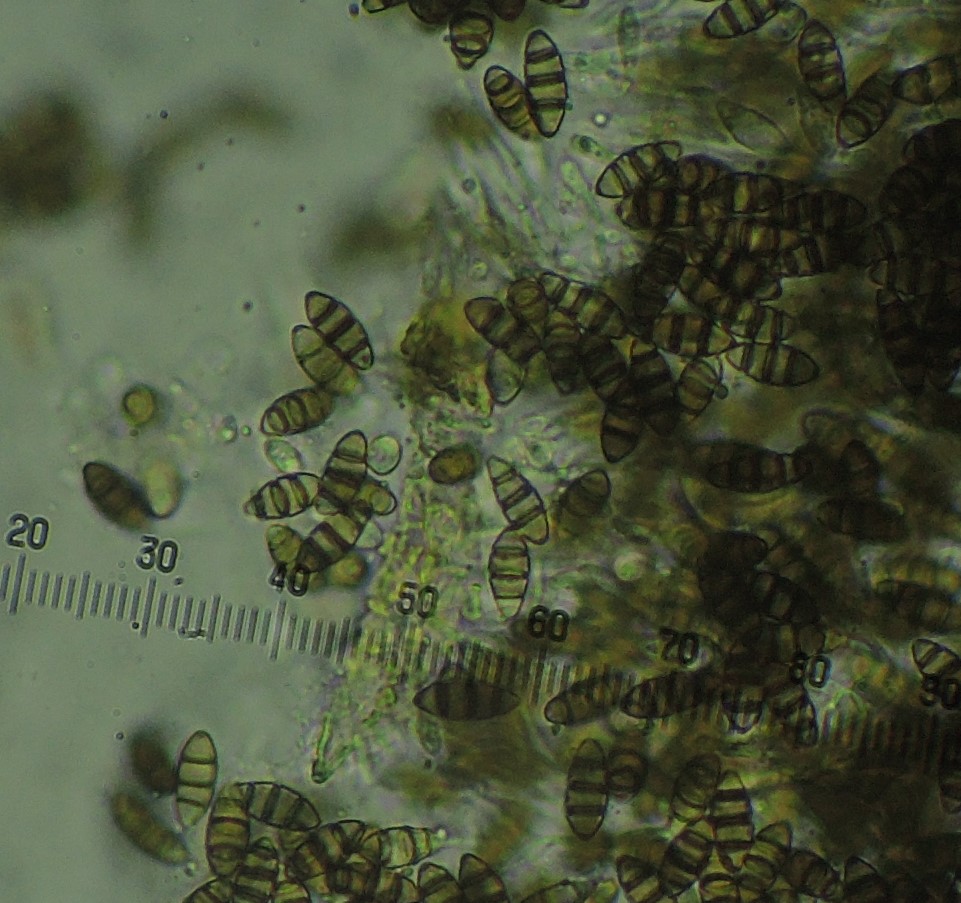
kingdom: Fungi
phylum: Ascomycota
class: Sordariomycetes
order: Amphisphaeriales
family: Sporocadaceae
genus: Discostroma
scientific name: Discostroma corticola
